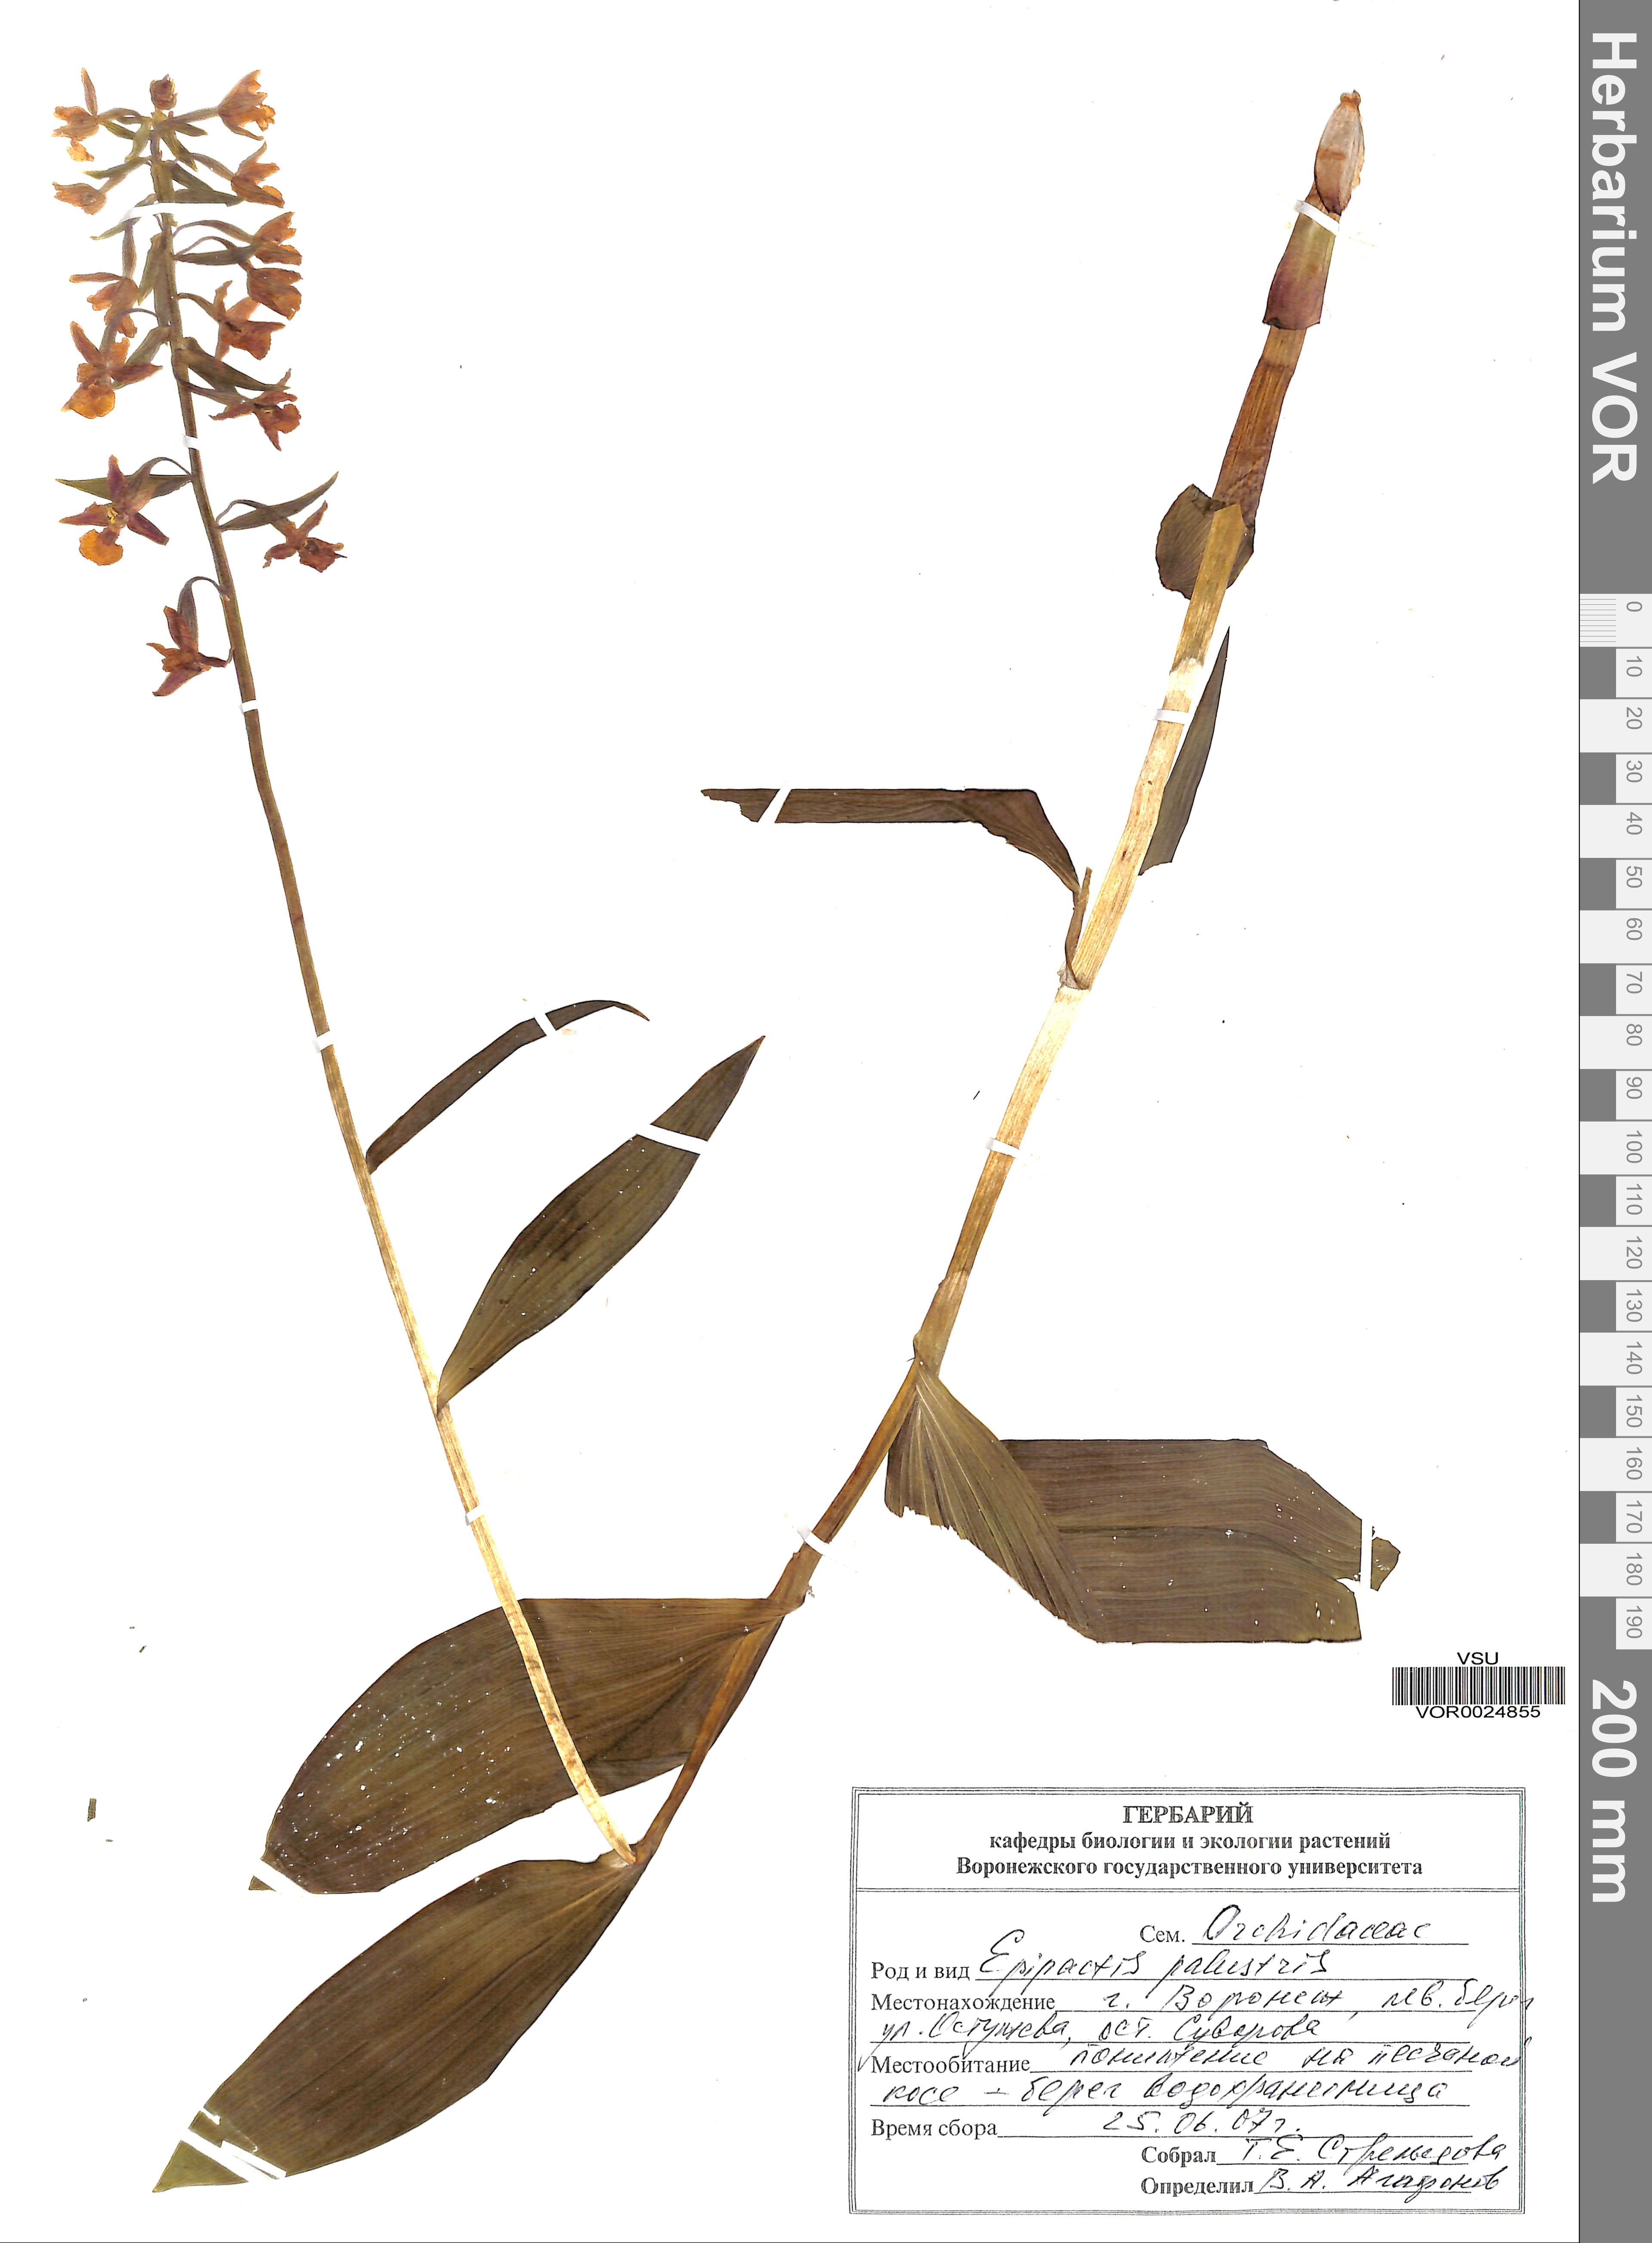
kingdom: Plantae
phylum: Tracheophyta
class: Liliopsida
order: Asparagales
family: Orchidaceae
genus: Epipactis
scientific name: Epipactis palustris
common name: Marsh helleborine
